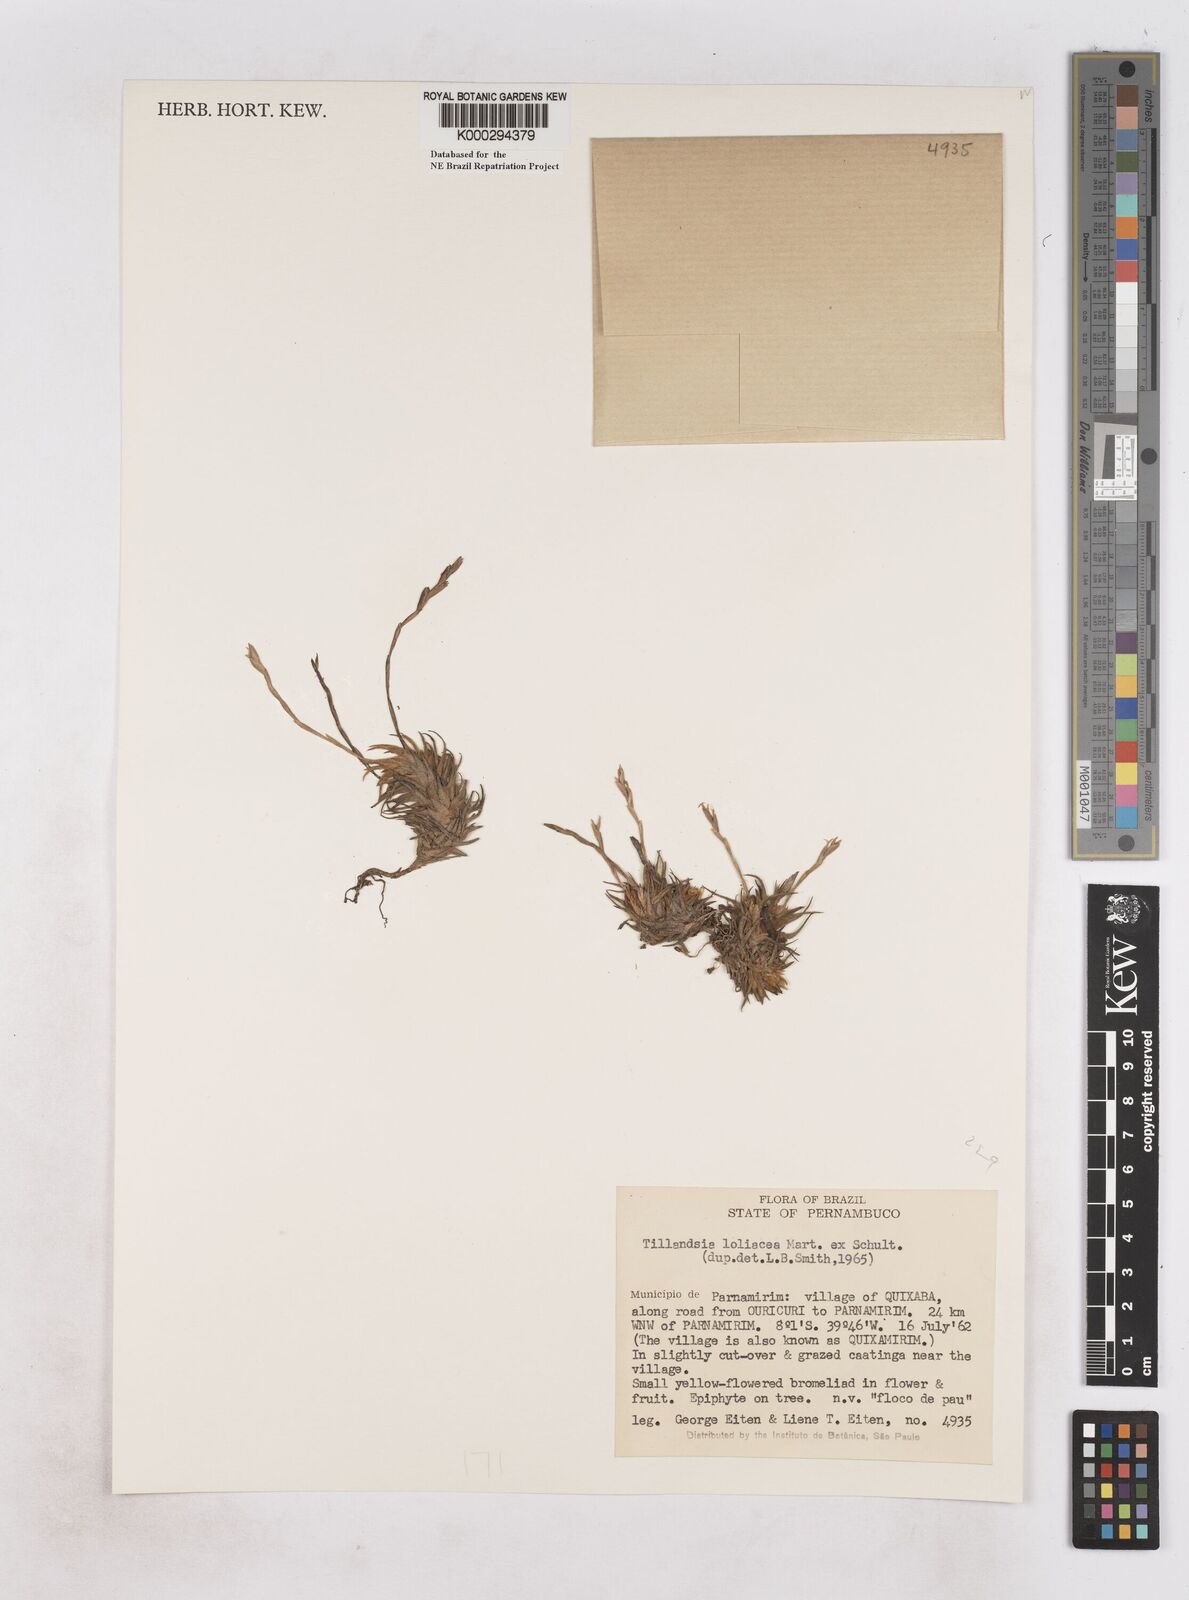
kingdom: Plantae
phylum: Tracheophyta
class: Liliopsida
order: Poales
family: Bromeliaceae
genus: Tillandsia
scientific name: Tillandsia loliacea
